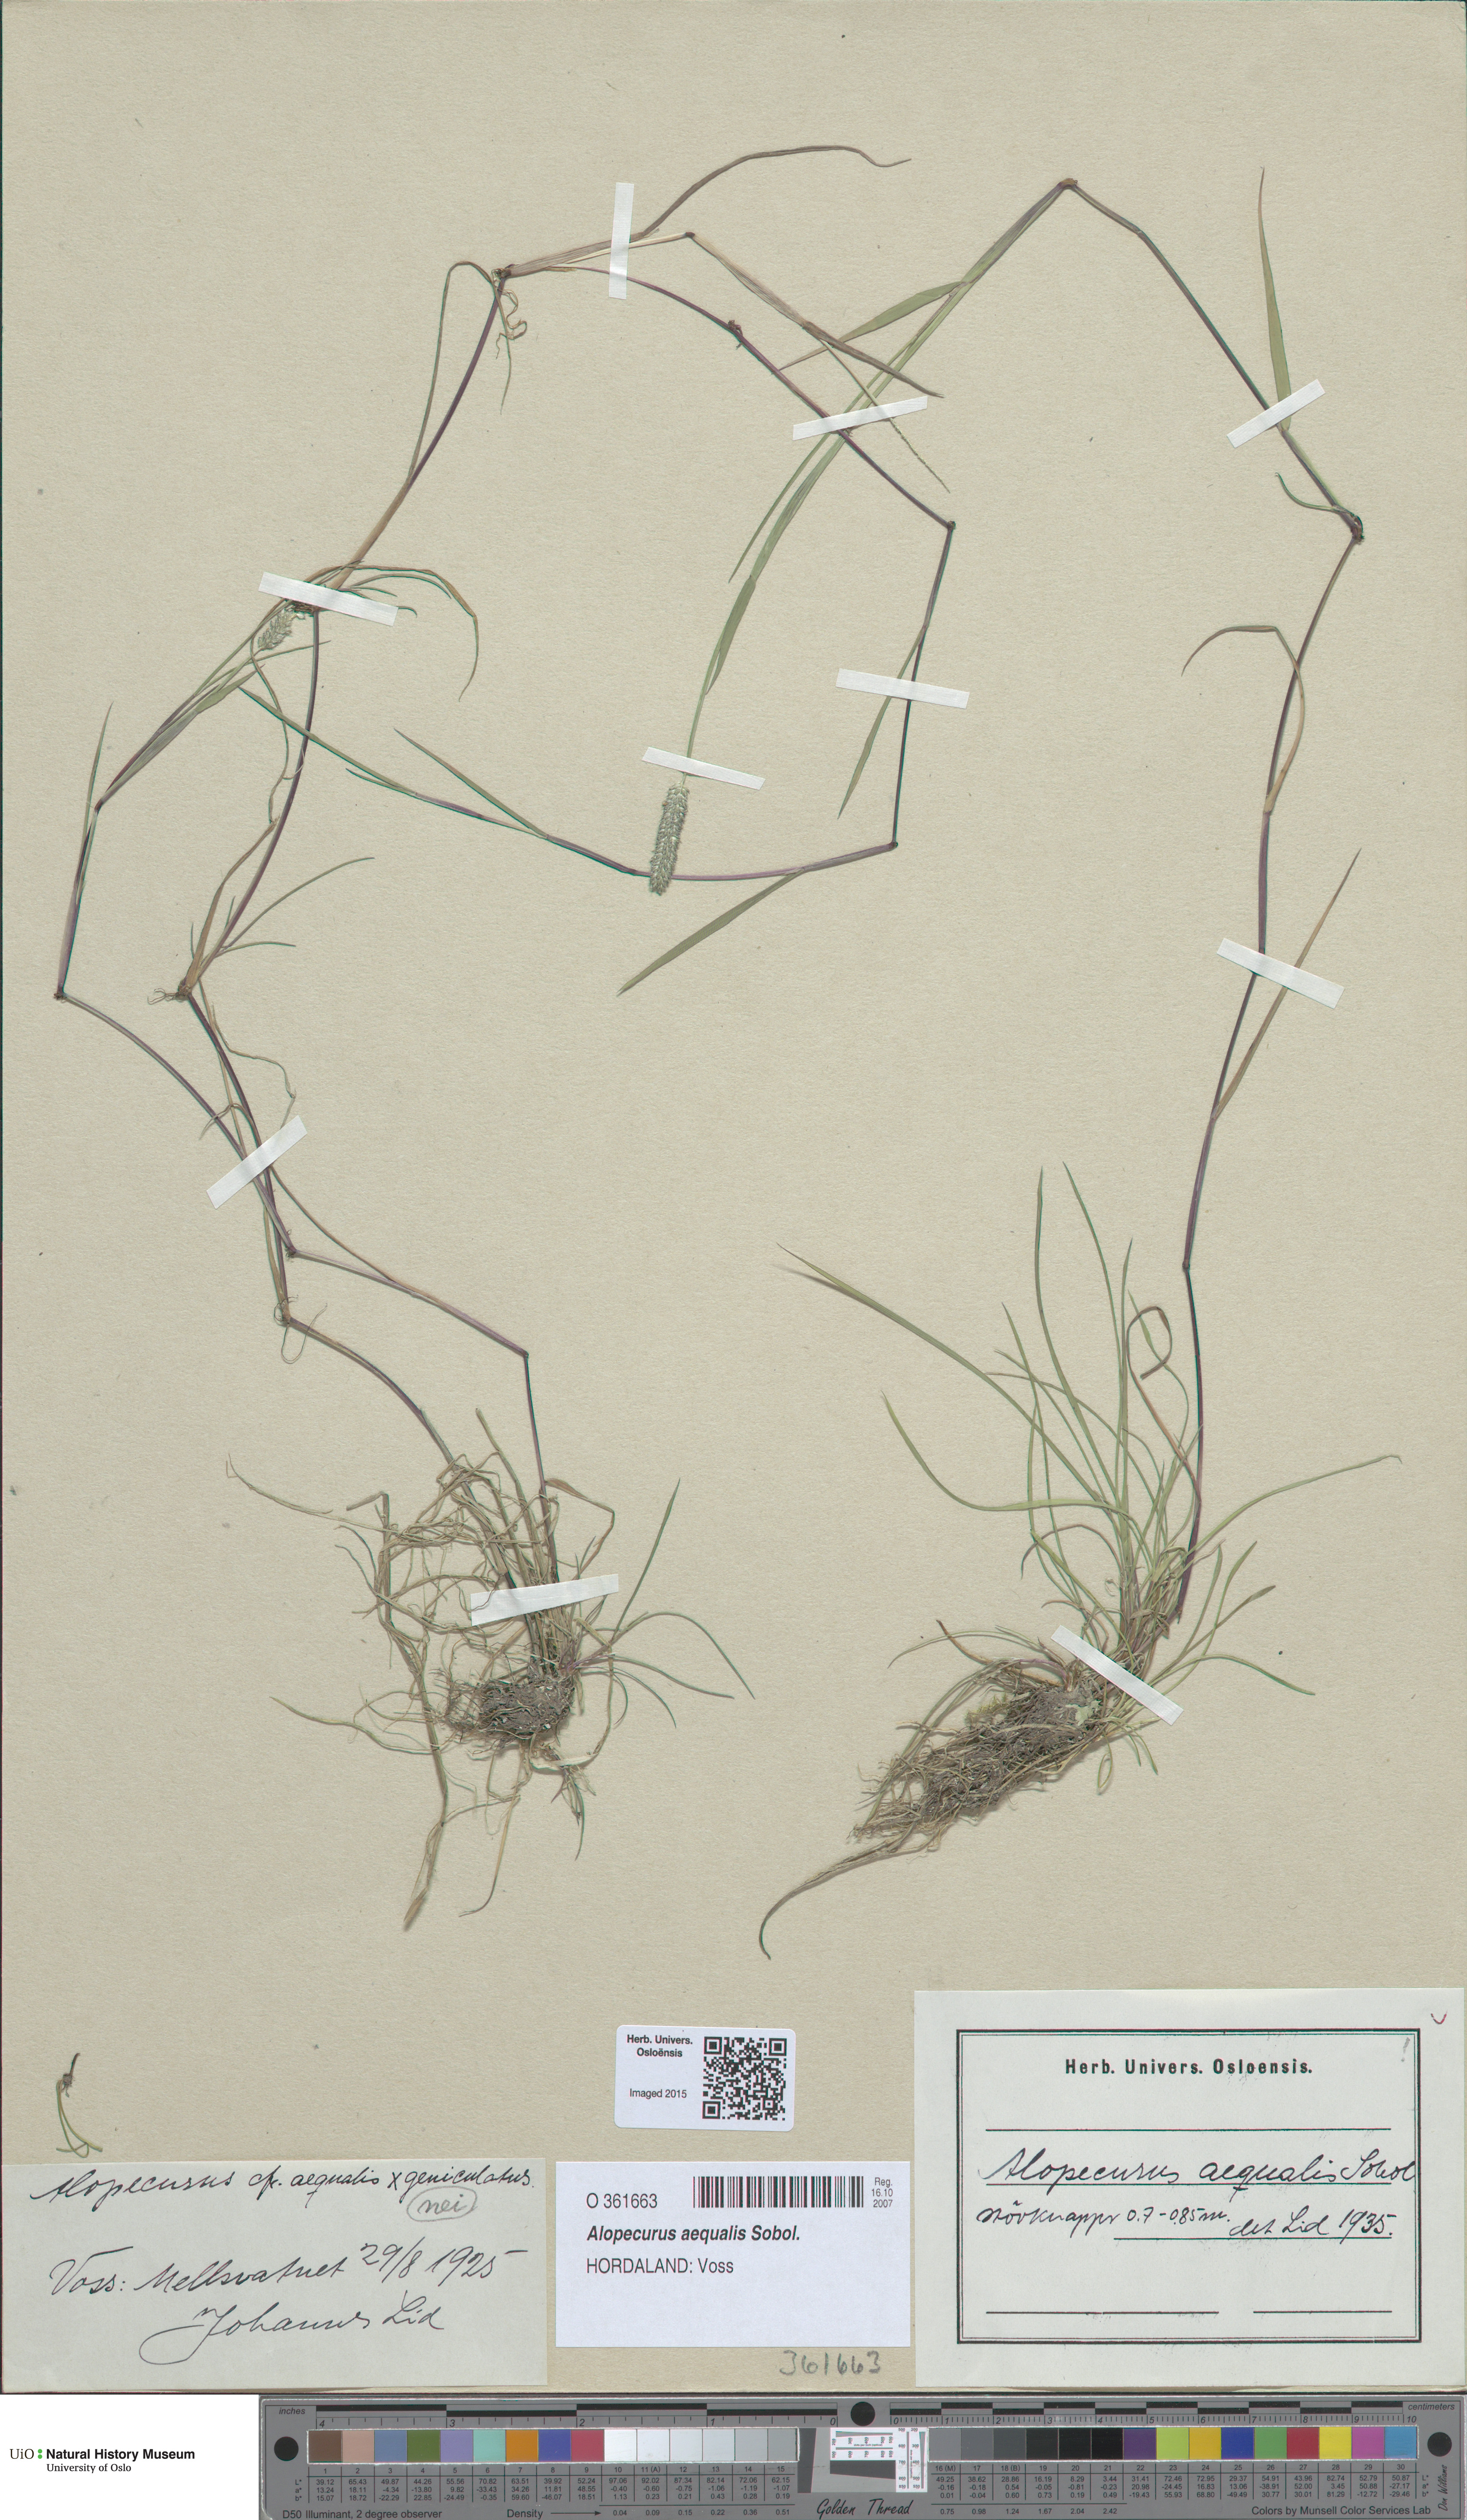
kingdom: Plantae
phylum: Tracheophyta
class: Liliopsida
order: Poales
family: Poaceae
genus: Alopecurus
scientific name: Alopecurus aequalis
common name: Orange foxtail
